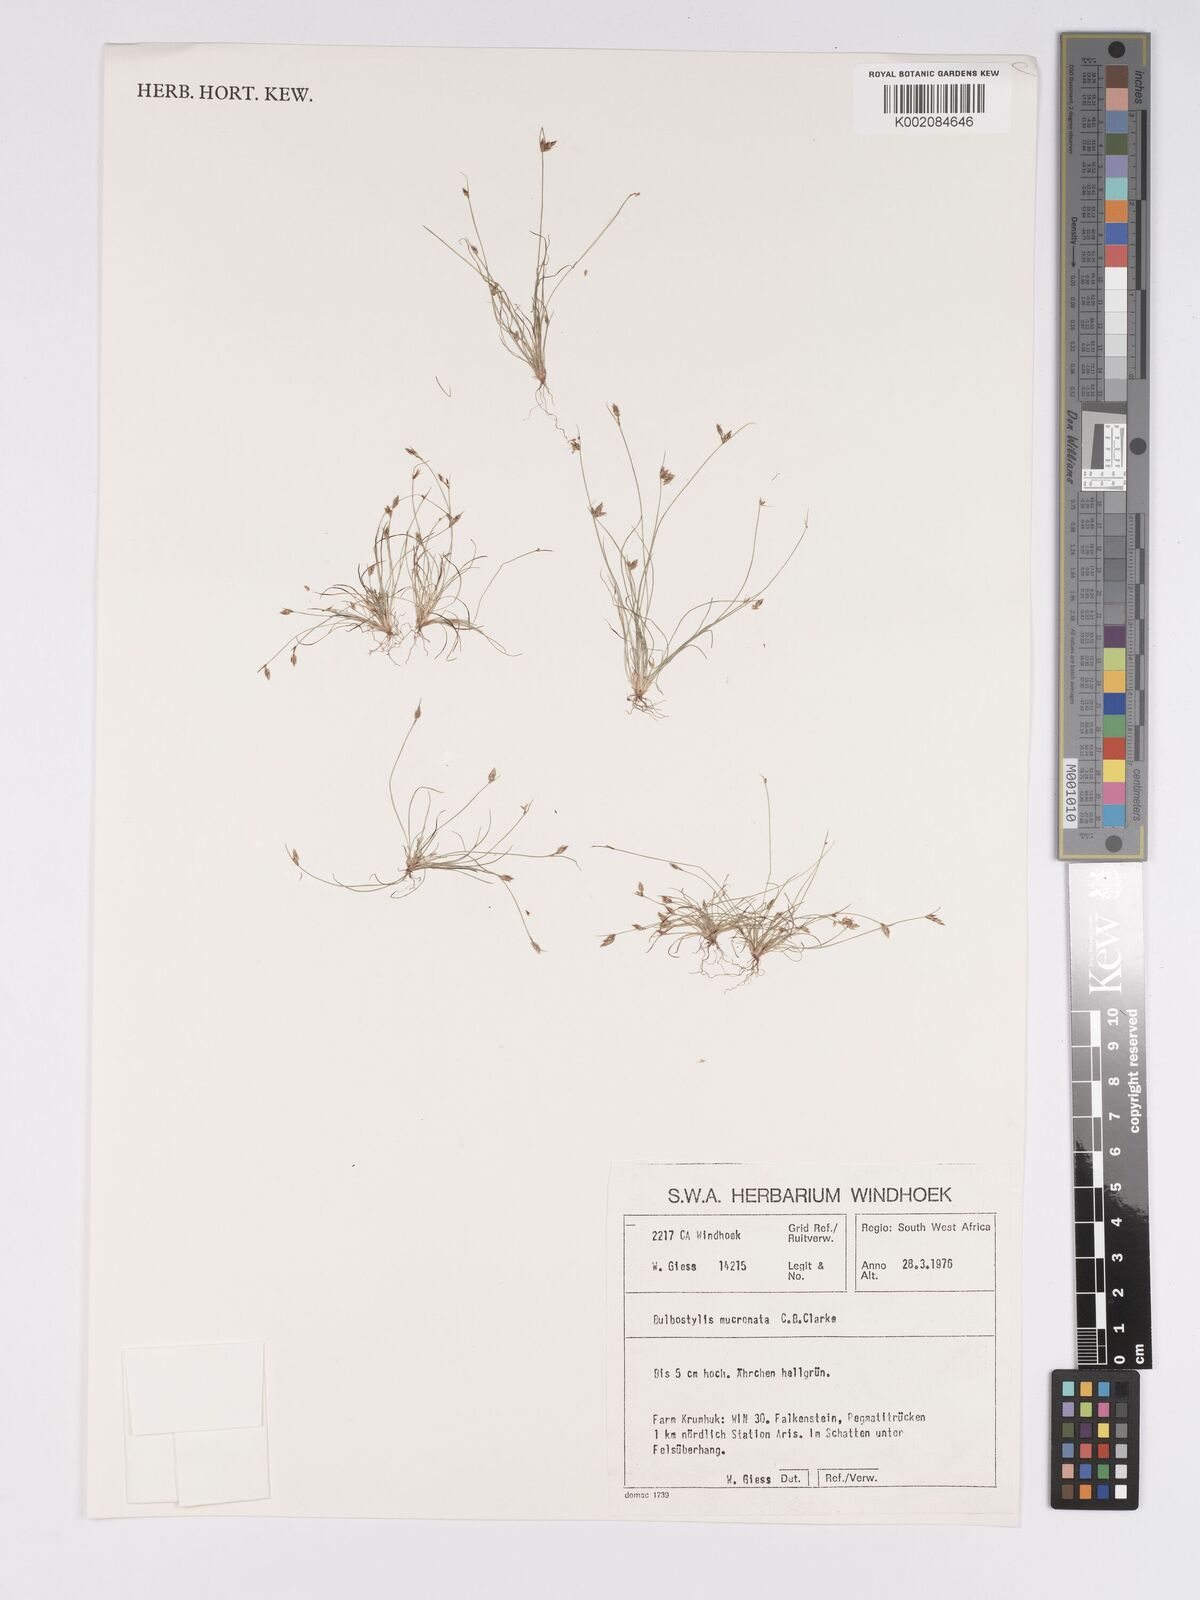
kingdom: Plantae
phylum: Tracheophyta
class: Liliopsida
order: Poales
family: Cyperaceae
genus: Bulbostylis
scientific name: Bulbostylis mucronata
